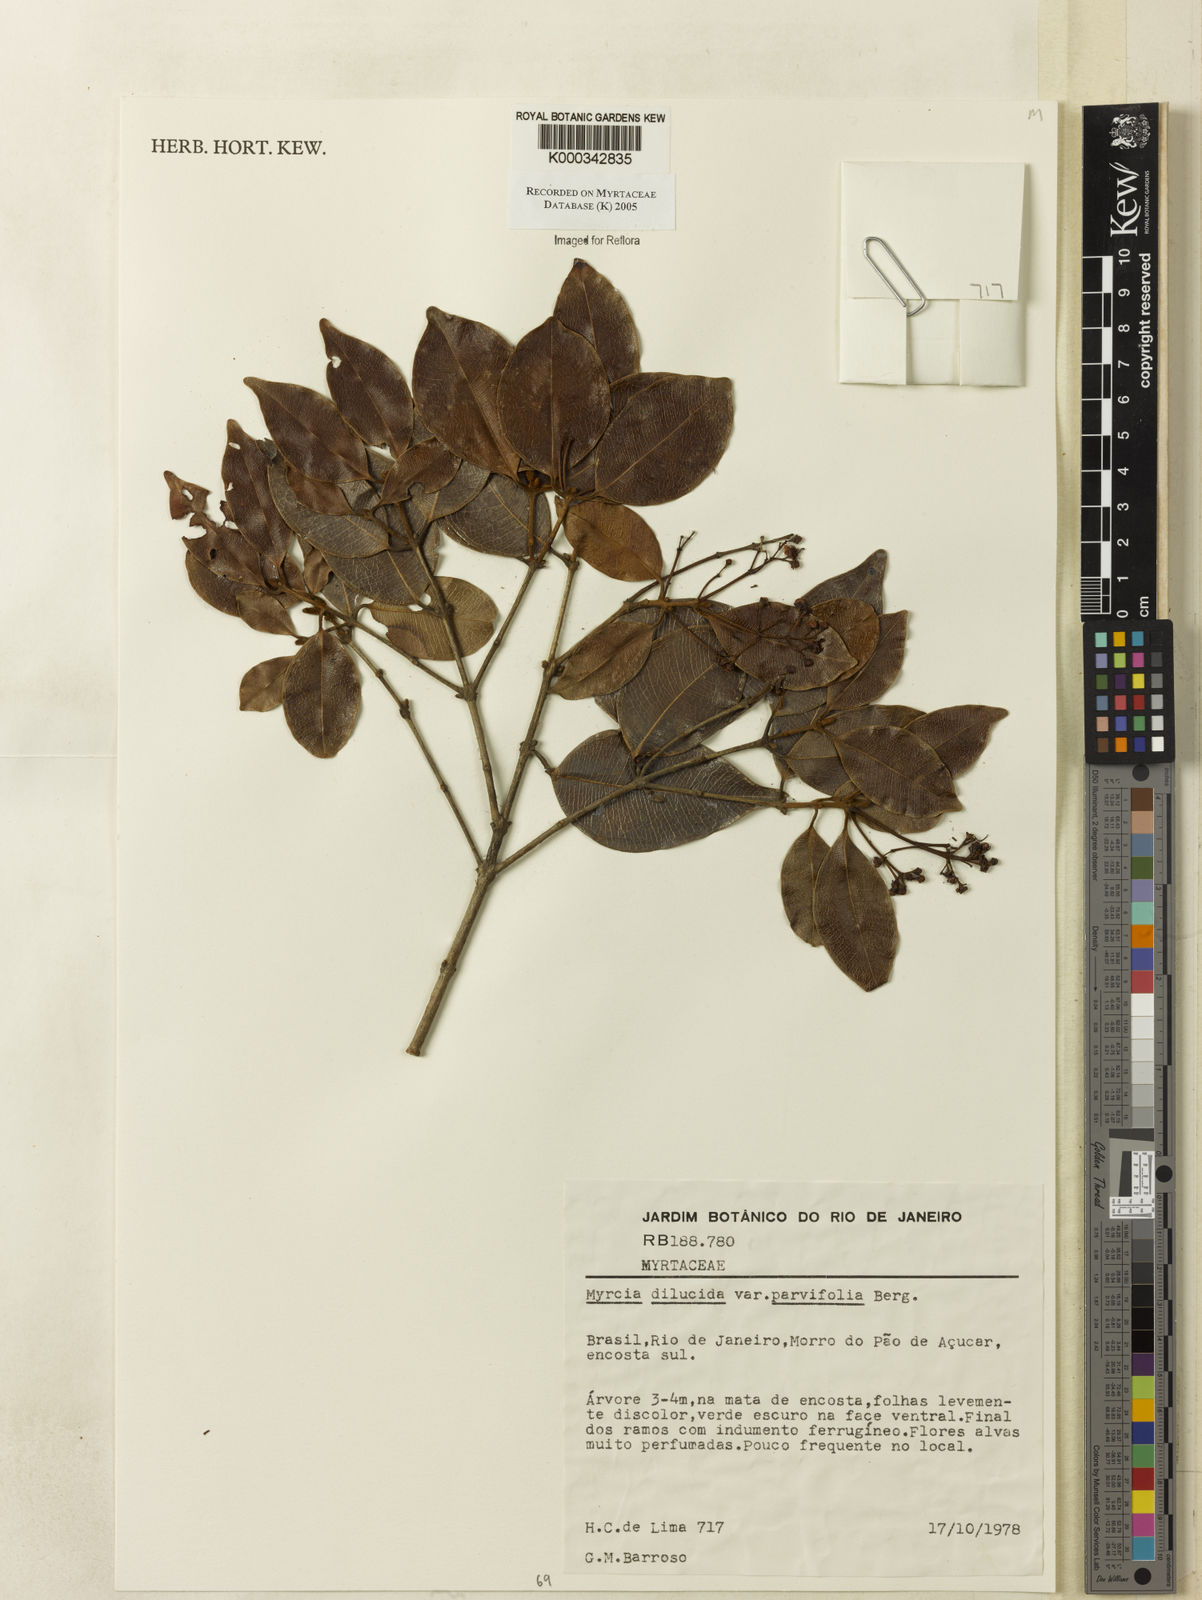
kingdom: Plantae
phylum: Tracheophyta
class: Magnoliopsida
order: Myrtales
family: Myrtaceae
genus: Myrcia
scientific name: Myrcia aethusa
